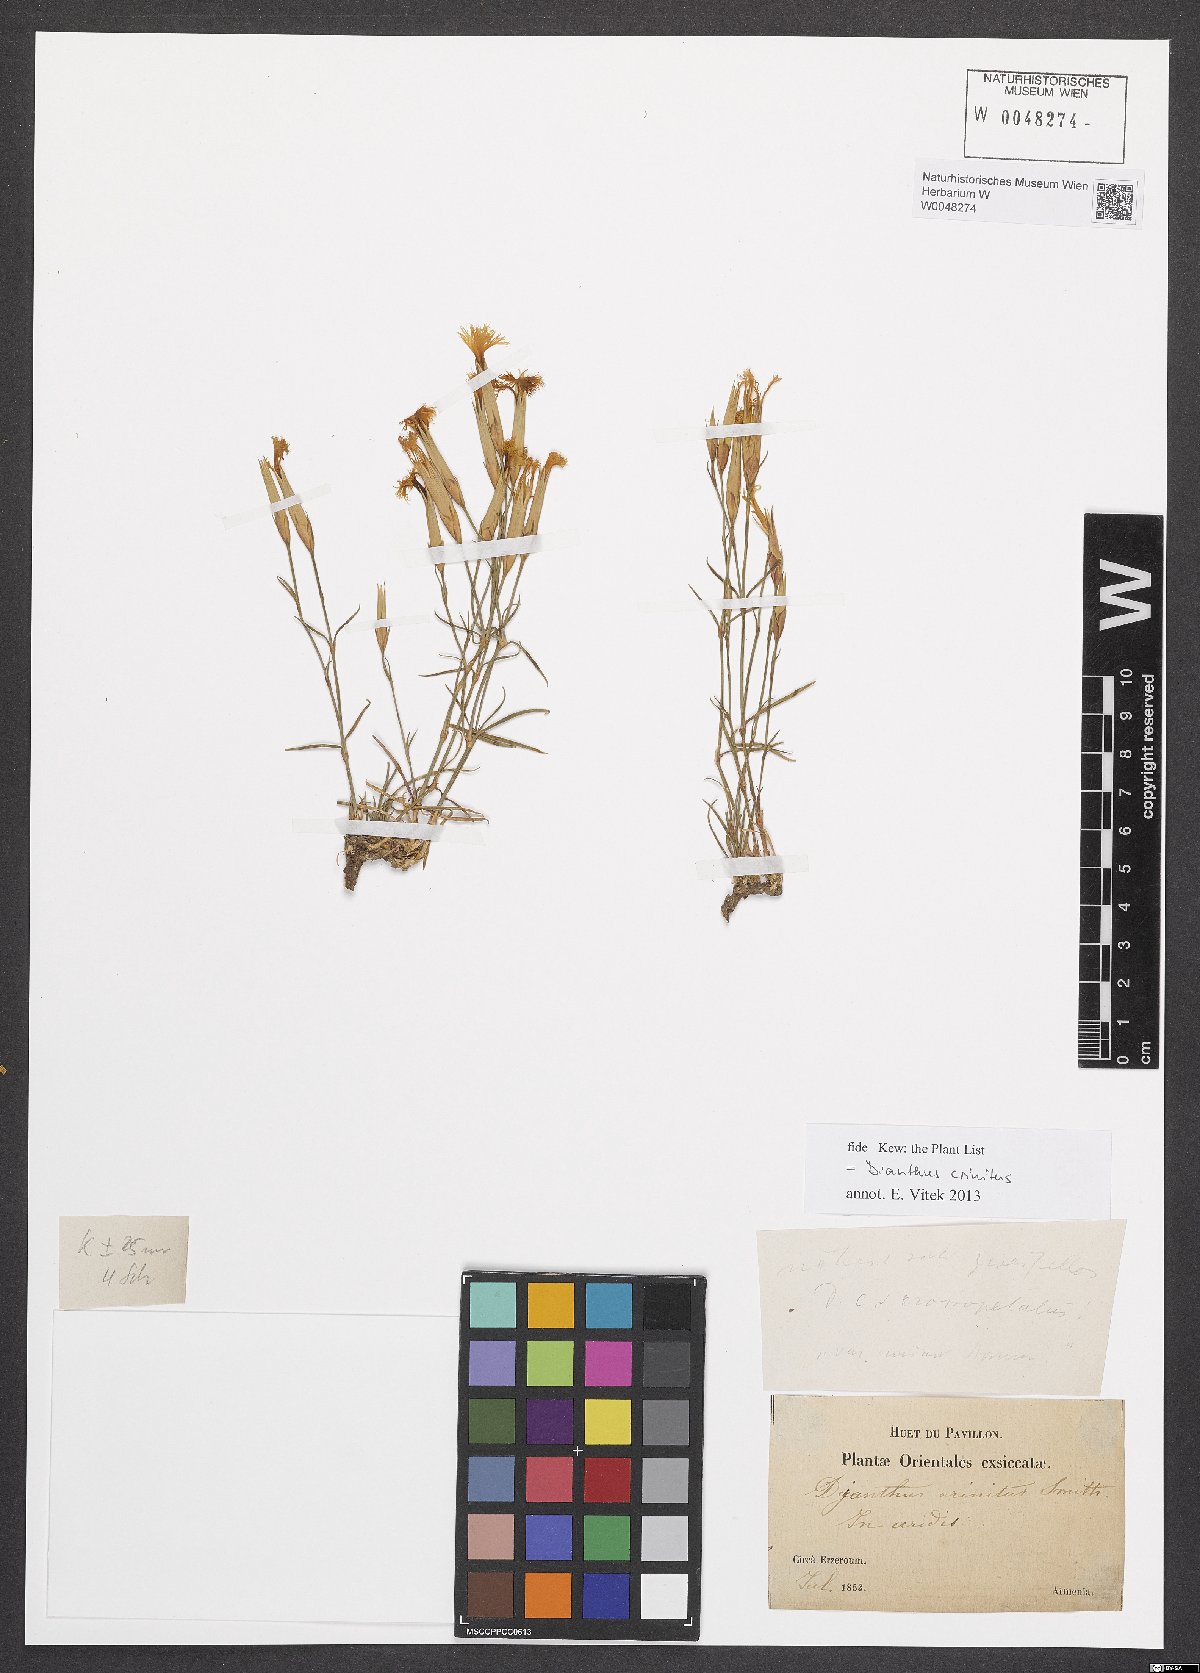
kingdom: Plantae
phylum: Tracheophyta
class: Magnoliopsida
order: Caryophyllales
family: Caryophyllaceae
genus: Dianthus
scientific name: Dianthus crinitus
